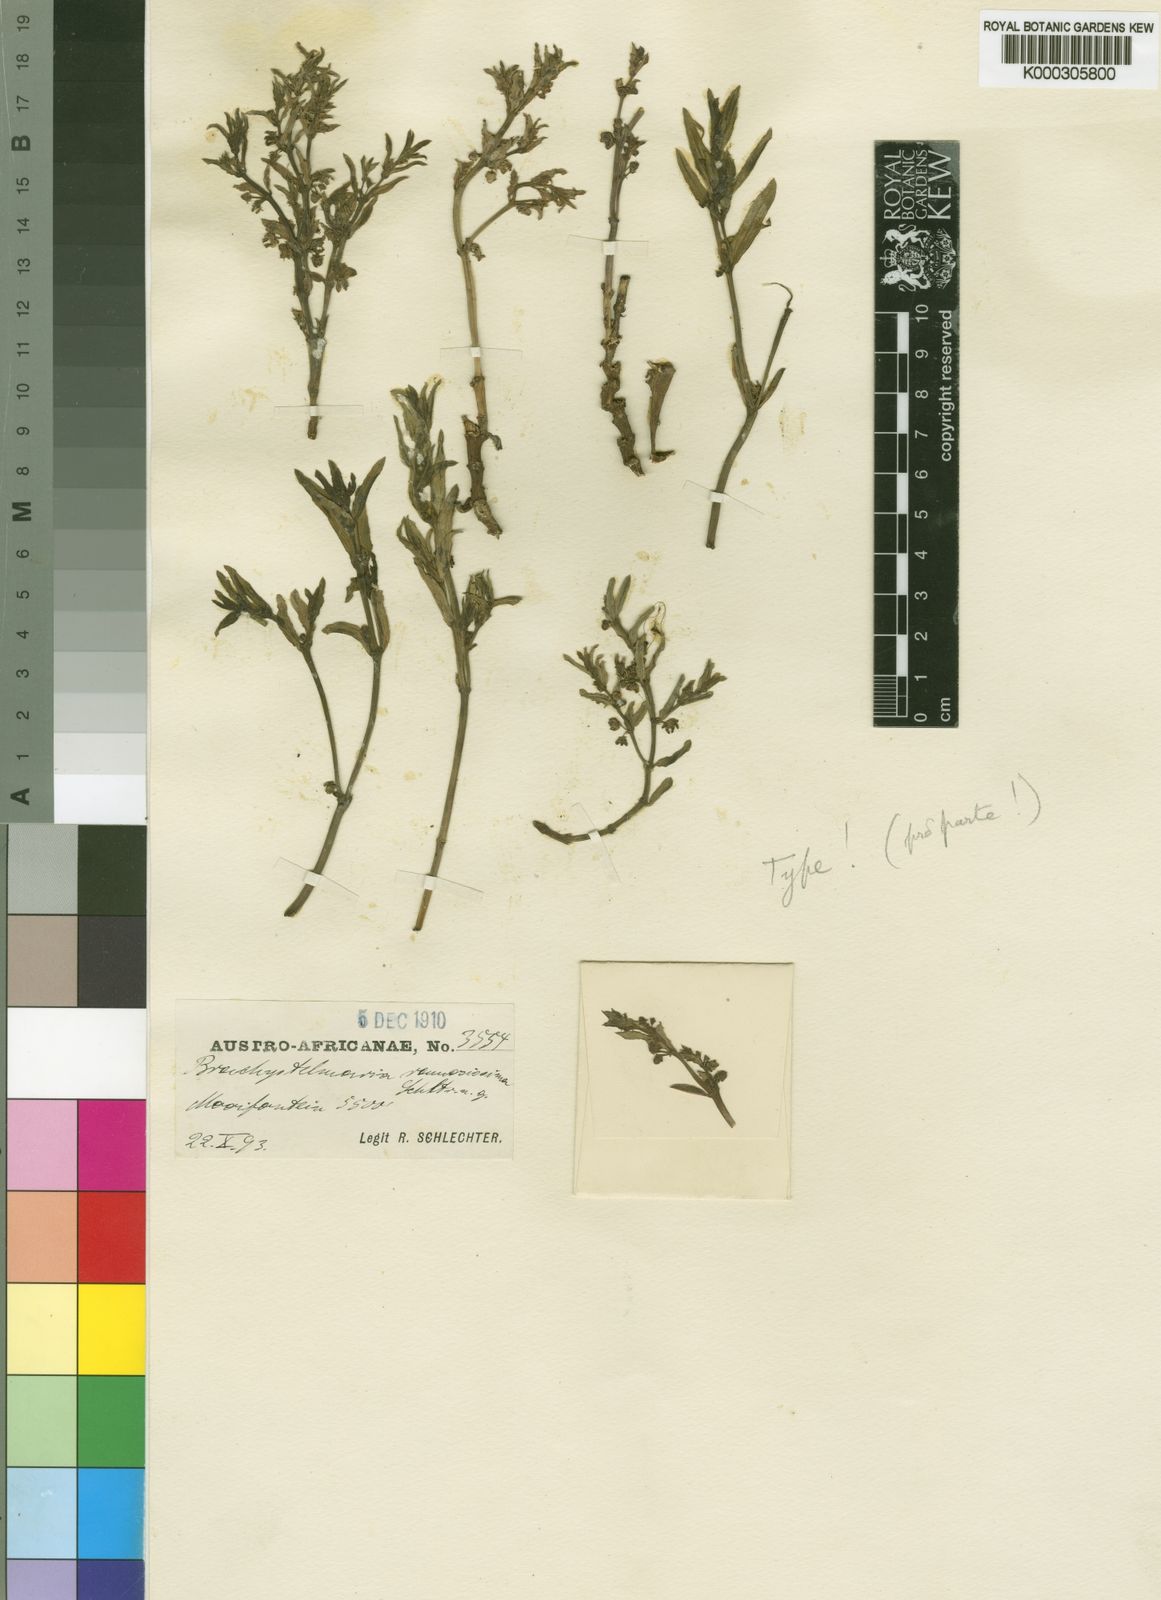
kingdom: Plantae
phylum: Tracheophyta
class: Magnoliopsida
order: Gentianales
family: Apocynaceae
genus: Ceropegia
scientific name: Ceropegia ramosissima
